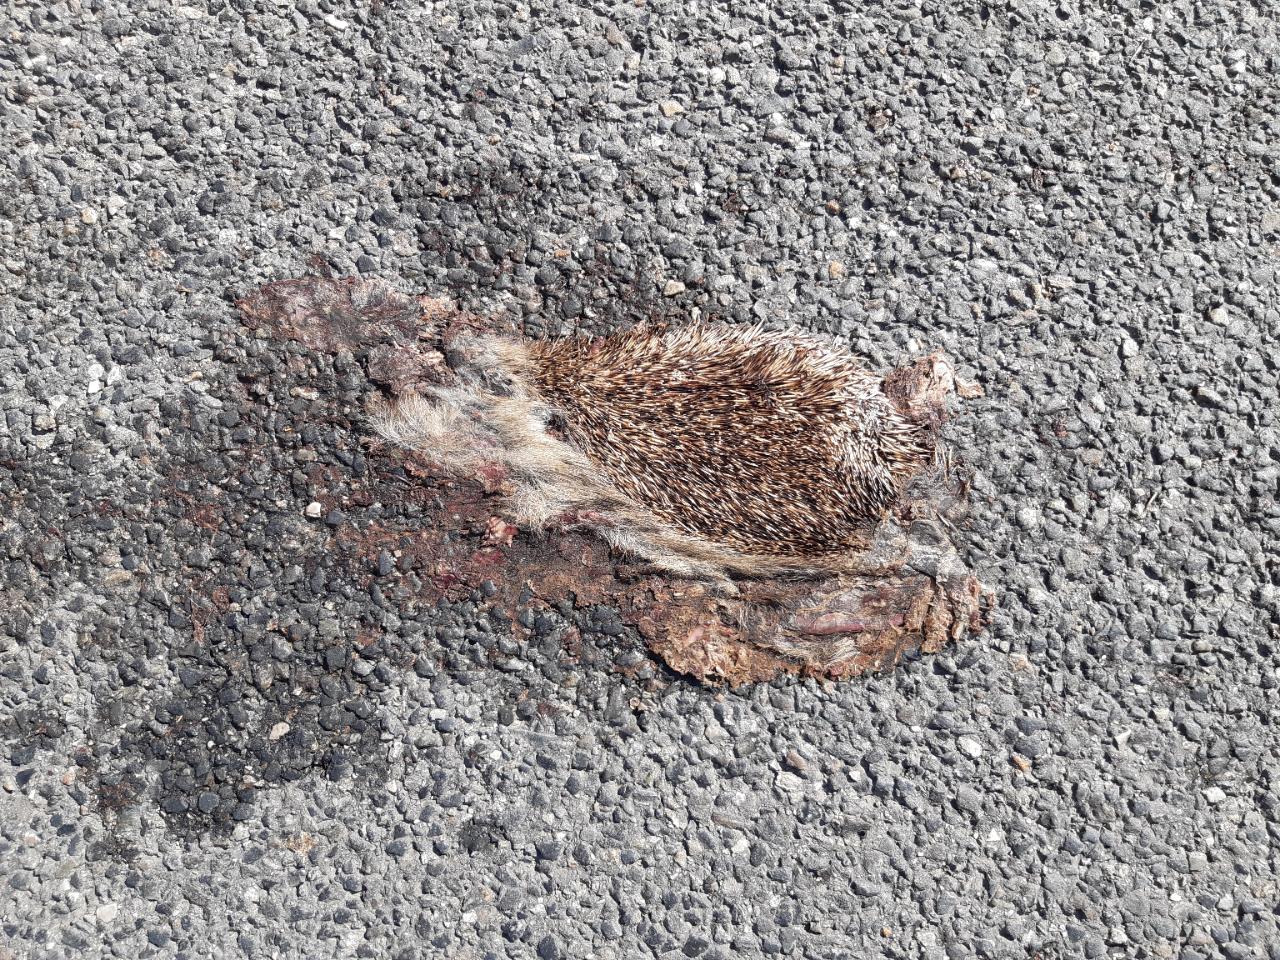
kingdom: Animalia
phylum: Chordata
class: Mammalia
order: Erinaceomorpha
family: Erinaceidae
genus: Erinaceus
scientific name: Erinaceus
